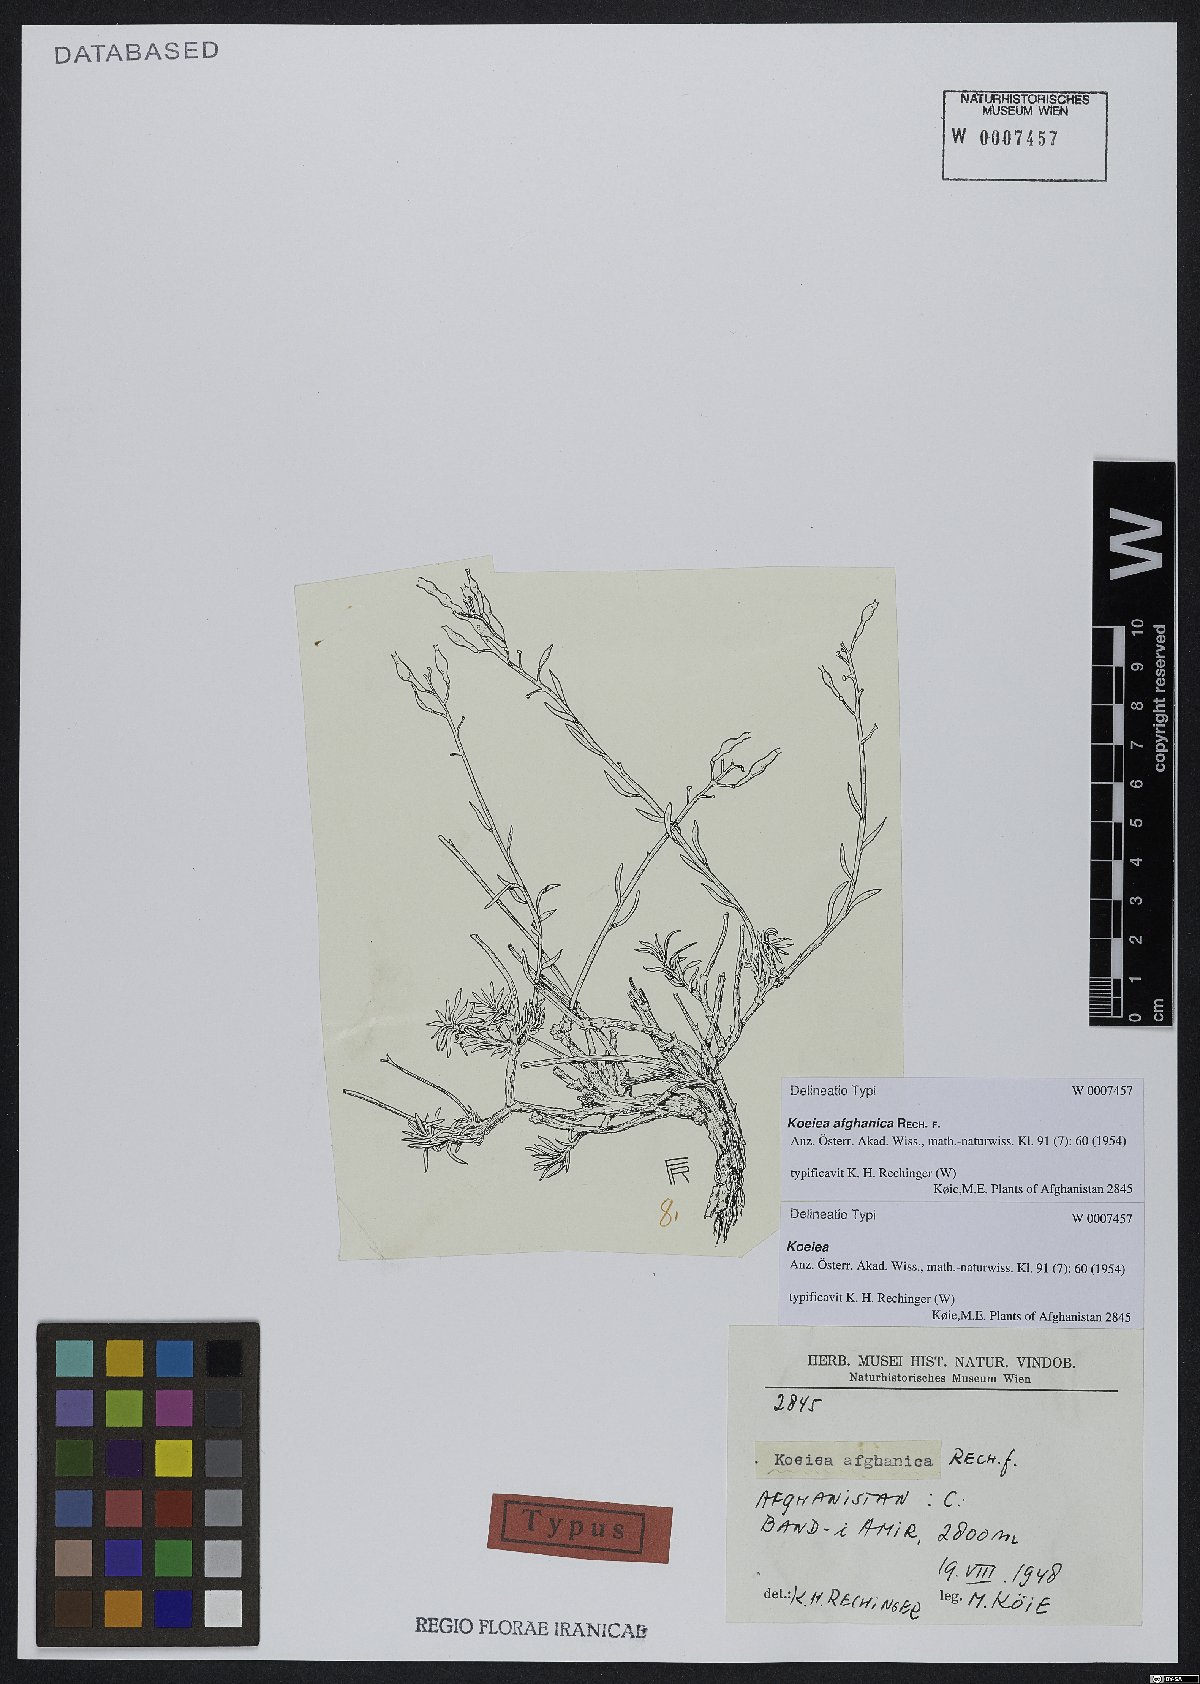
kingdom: Plantae
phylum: Tracheophyta
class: Magnoliopsida
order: Brassicales
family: Brassicaceae
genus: Rhammatophyllum
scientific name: Rhammatophyllum afghanicum
